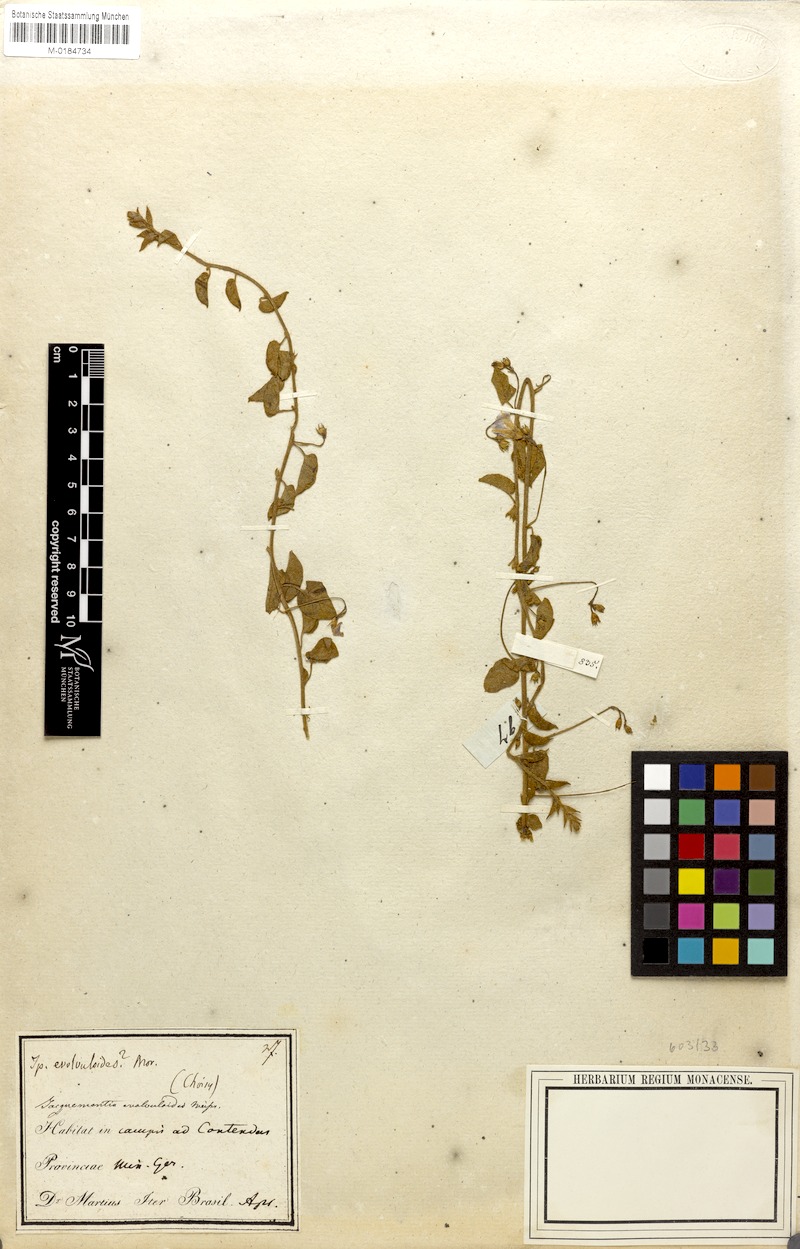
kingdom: Plantae
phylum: Tracheophyta
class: Magnoliopsida
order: Solanales
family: Convolvulaceae
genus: Jacquemontia
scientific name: Jacquemontia evolvuloides
